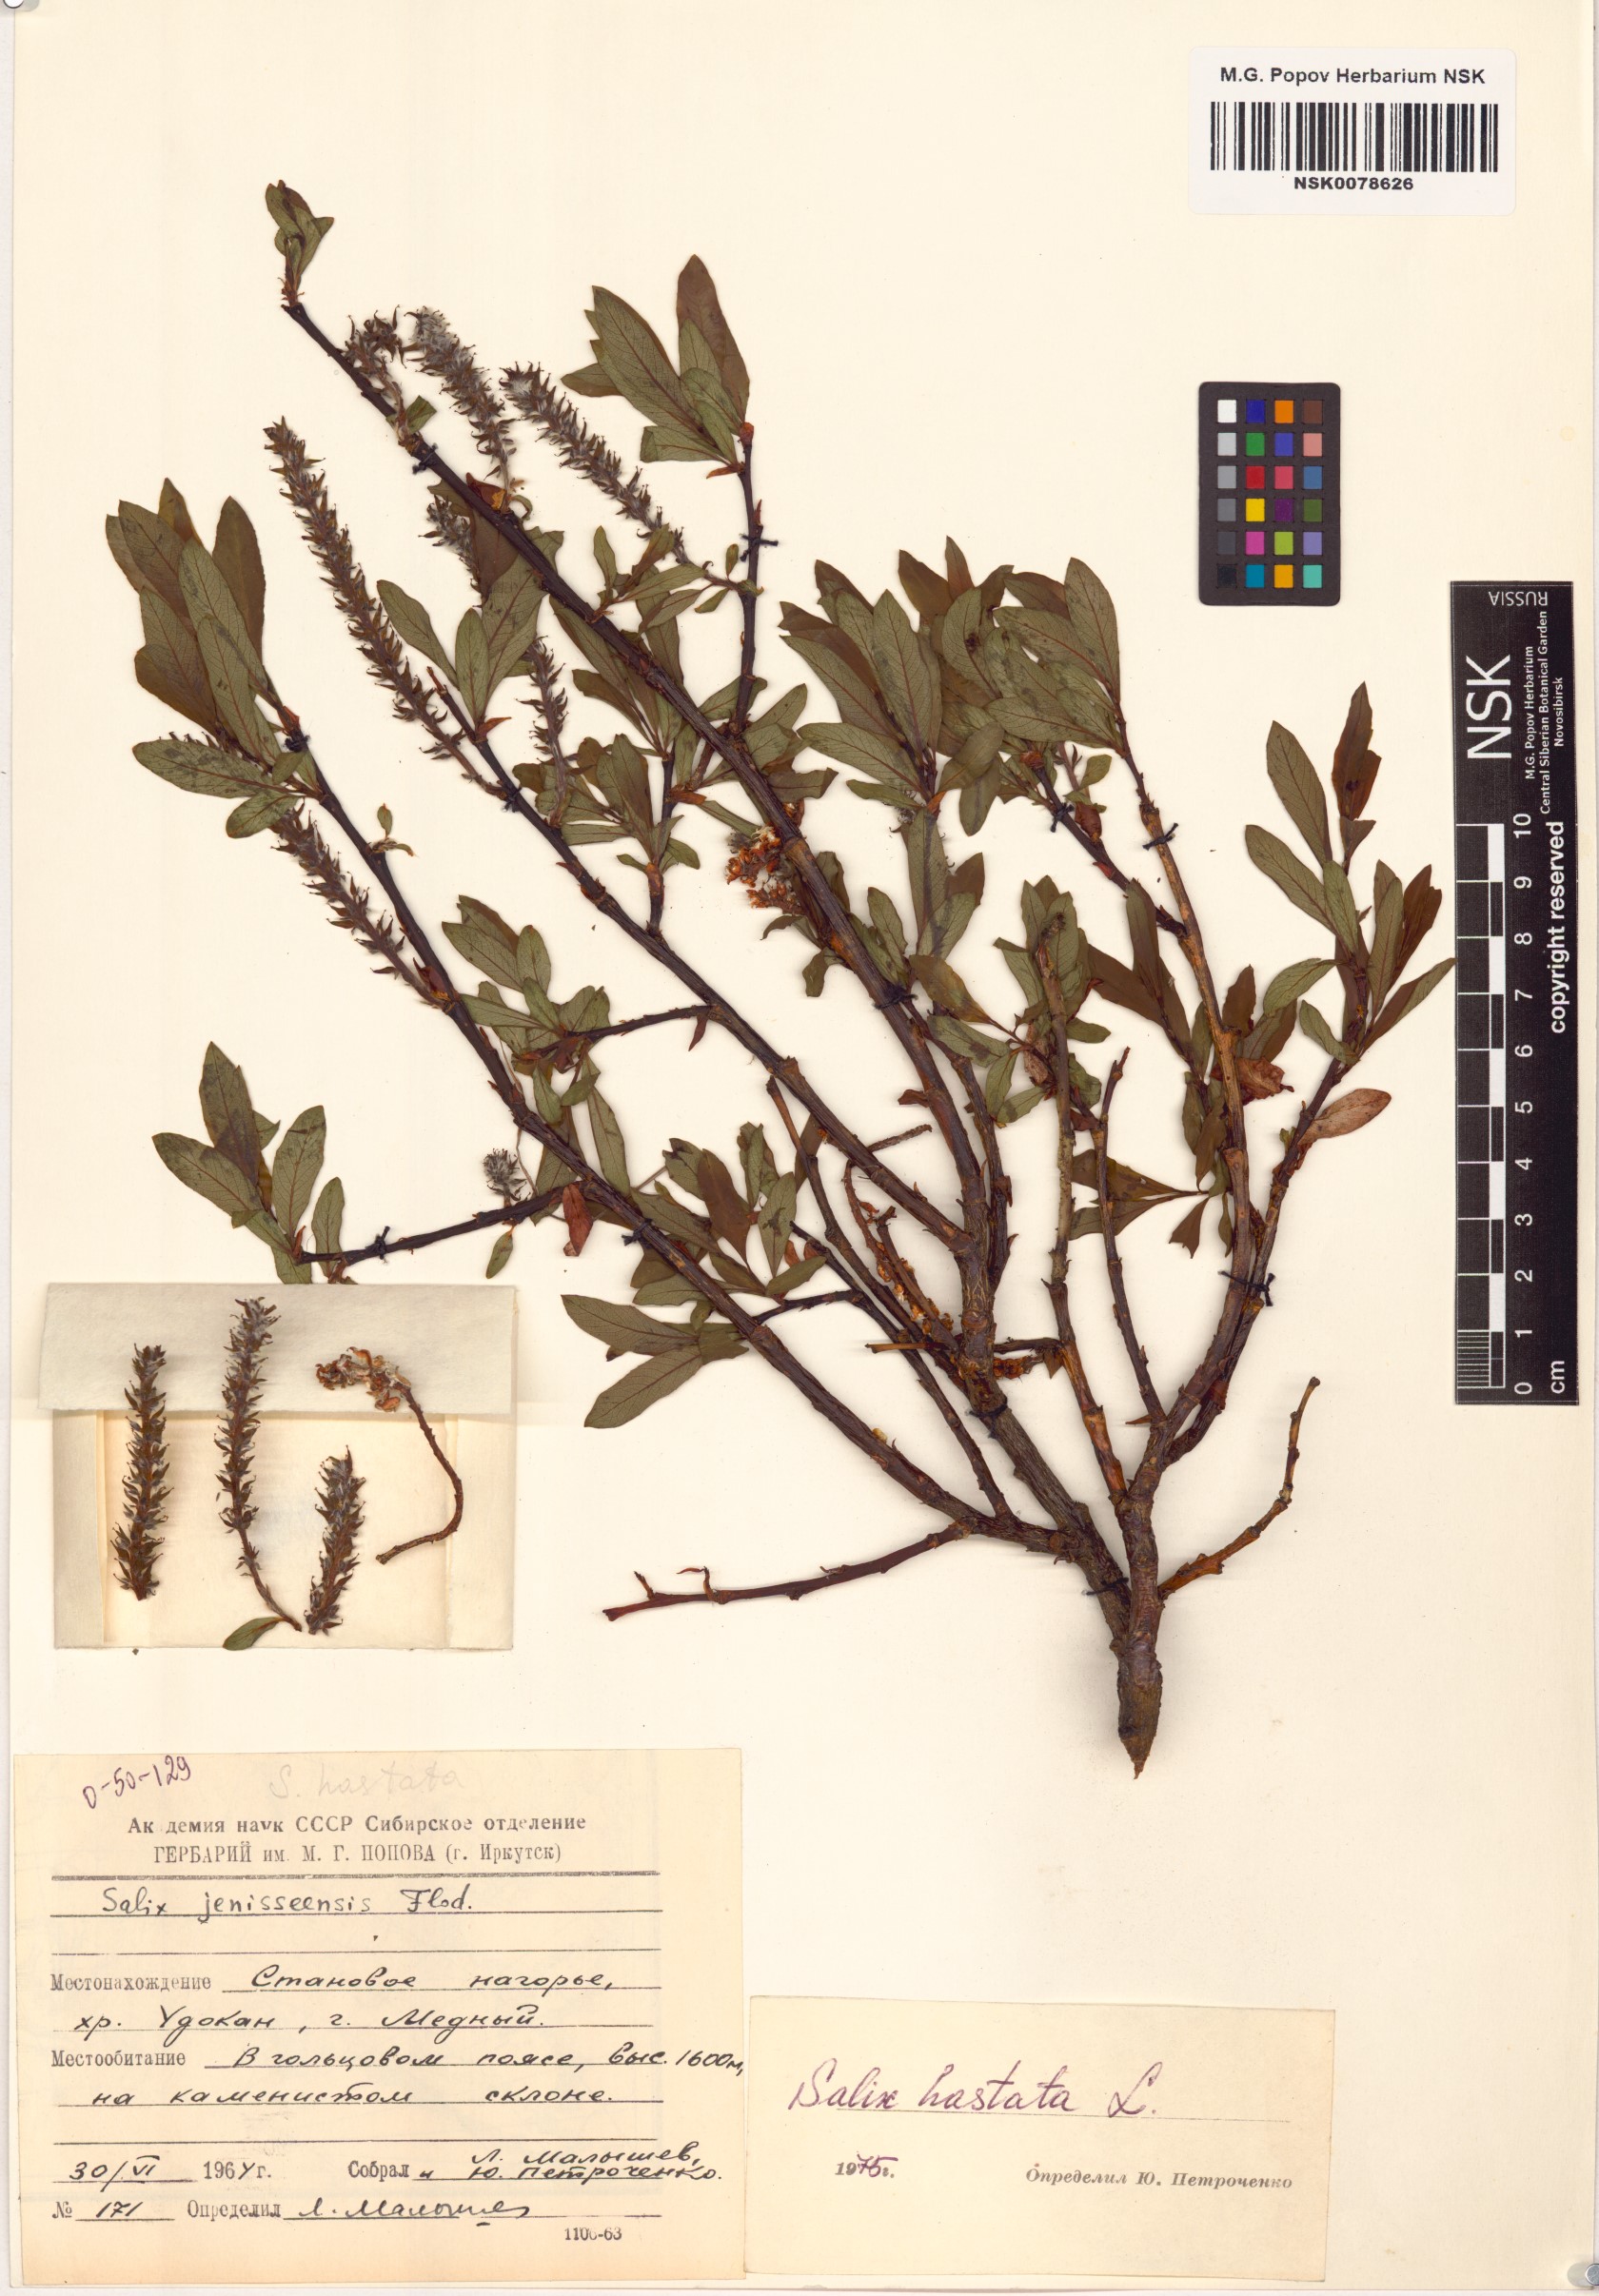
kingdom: Plantae
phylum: Tracheophyta
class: Magnoliopsida
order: Malpighiales
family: Salicaceae
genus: Salix
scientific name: Salix hastata
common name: Halberd willow
